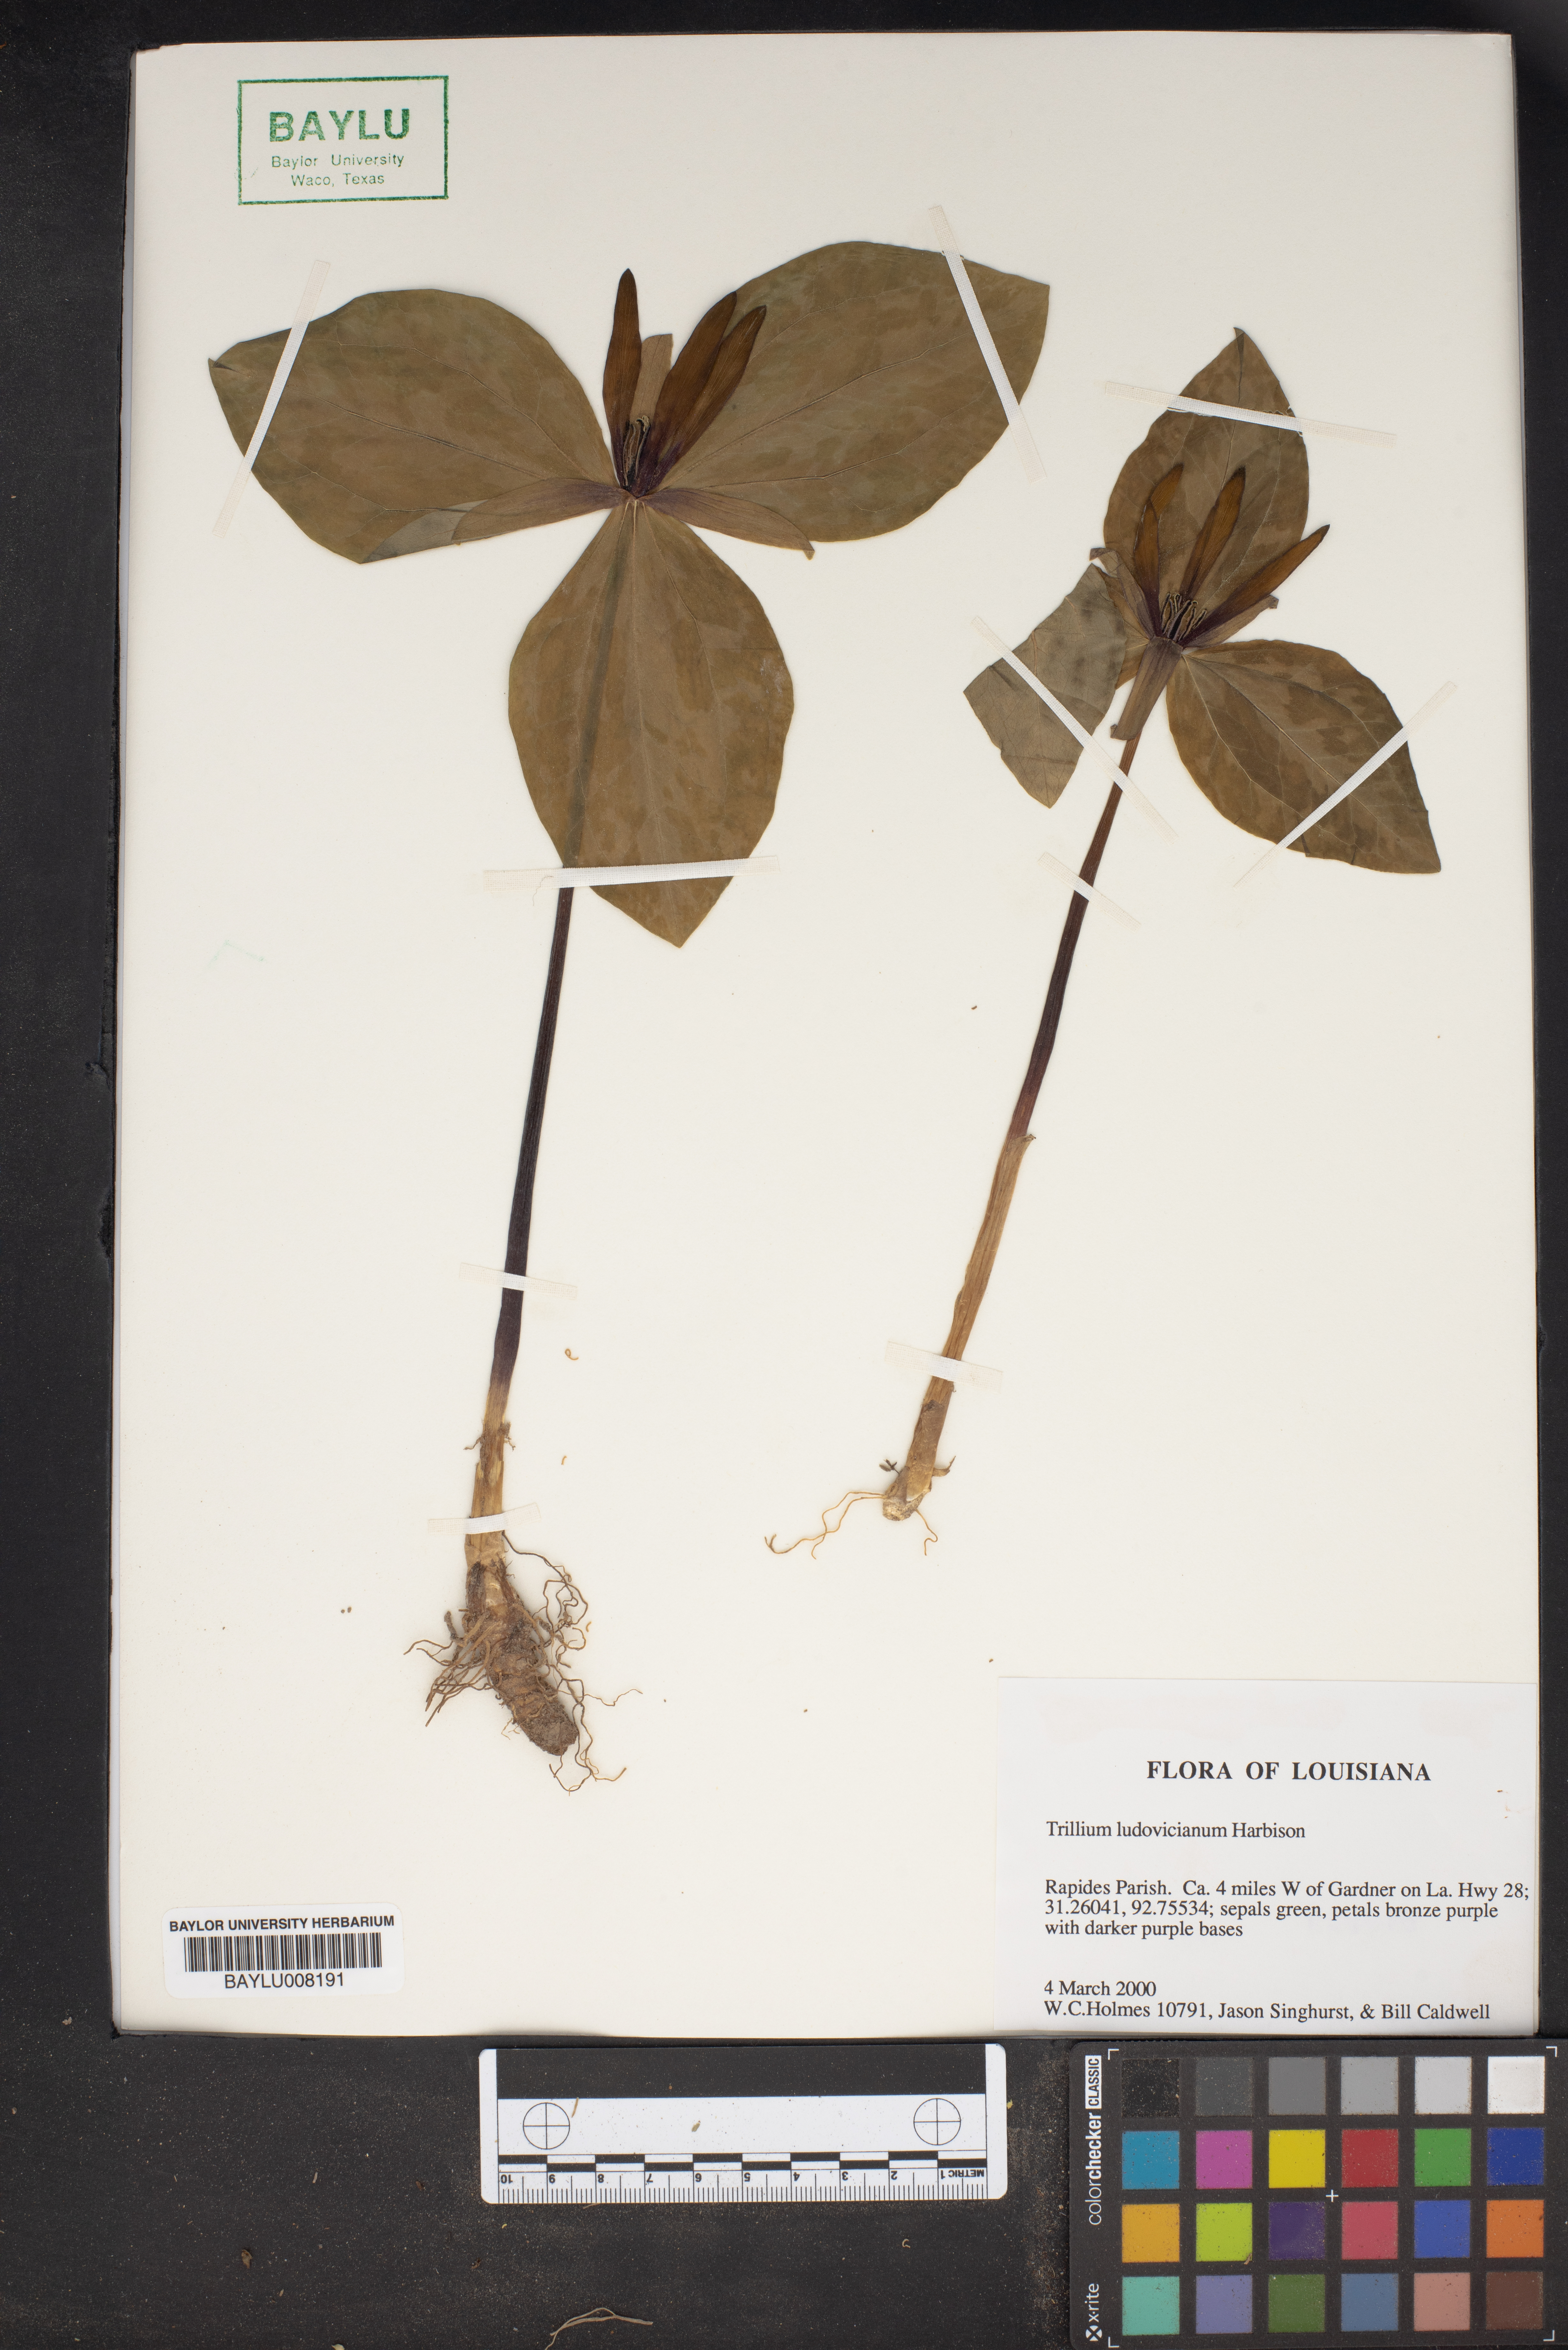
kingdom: Plantae
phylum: Tracheophyta
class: Liliopsida
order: Liliales
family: Melanthiaceae
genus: Trillium
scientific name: Trillium ludovicianum
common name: Louisiana toadshade
